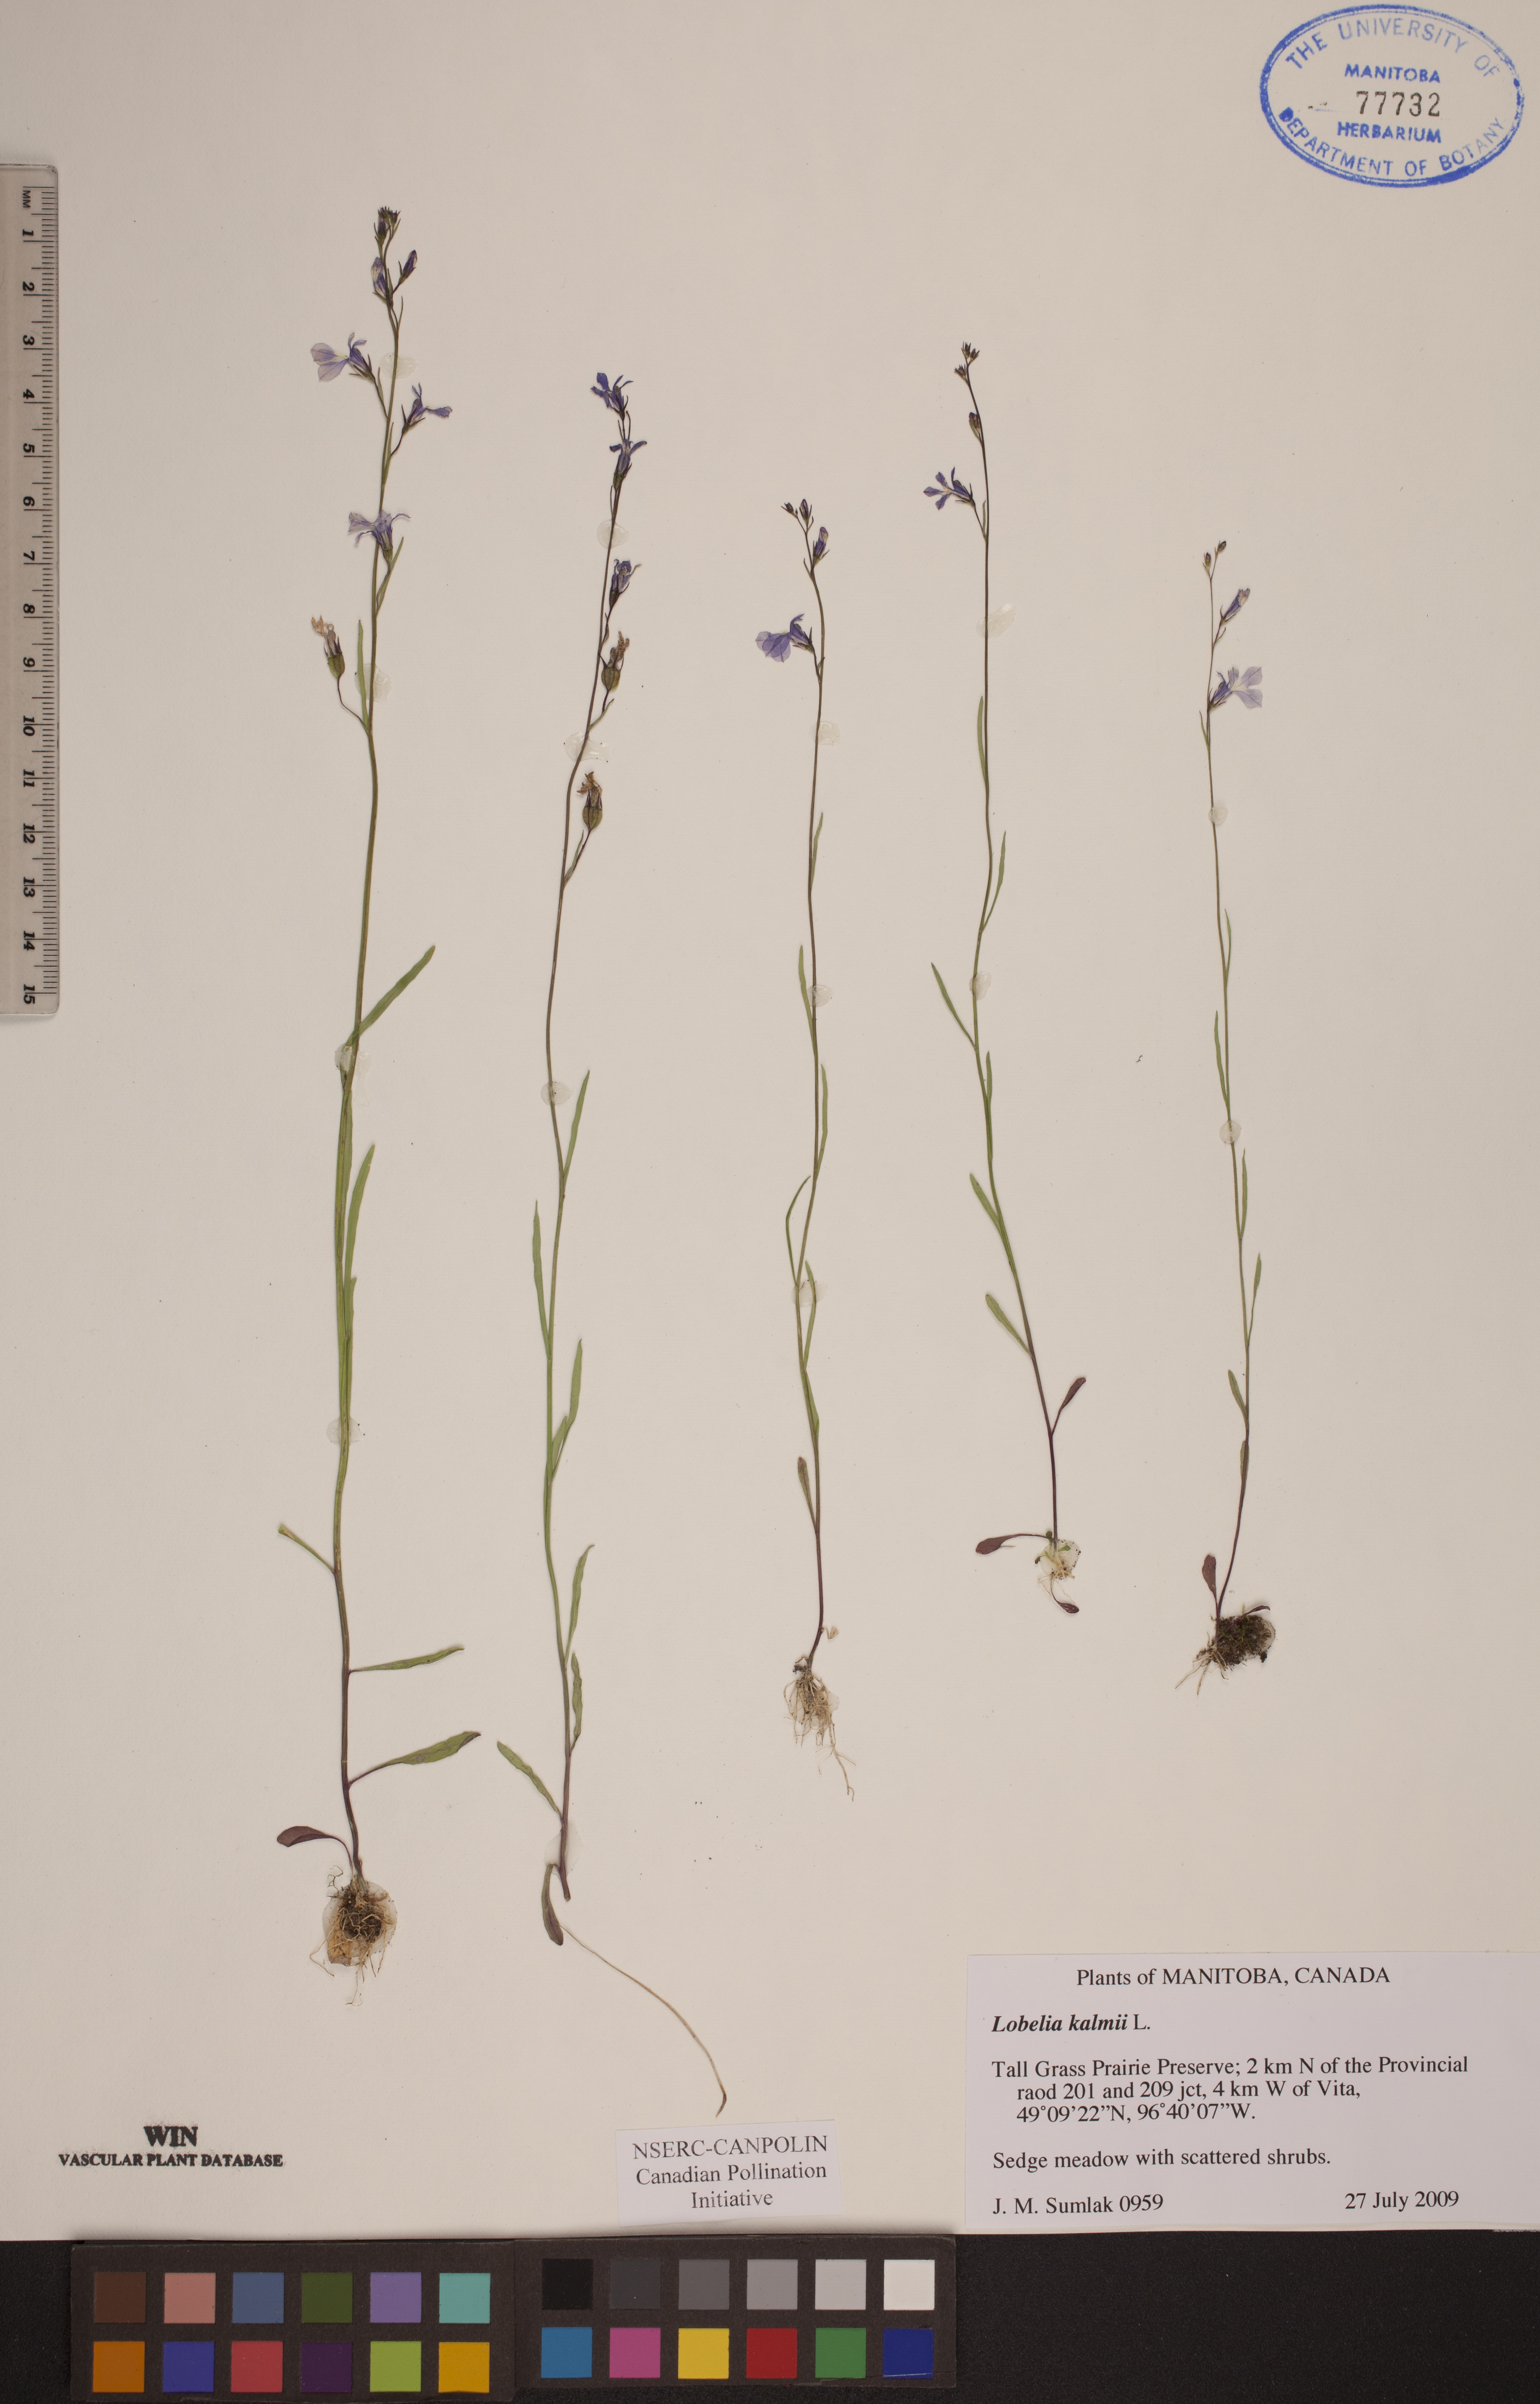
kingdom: Plantae
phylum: Tracheophyta
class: Magnoliopsida
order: Asterales
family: Campanulaceae
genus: Lobelia
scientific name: Lobelia kalmii
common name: Kalm's lobelia
